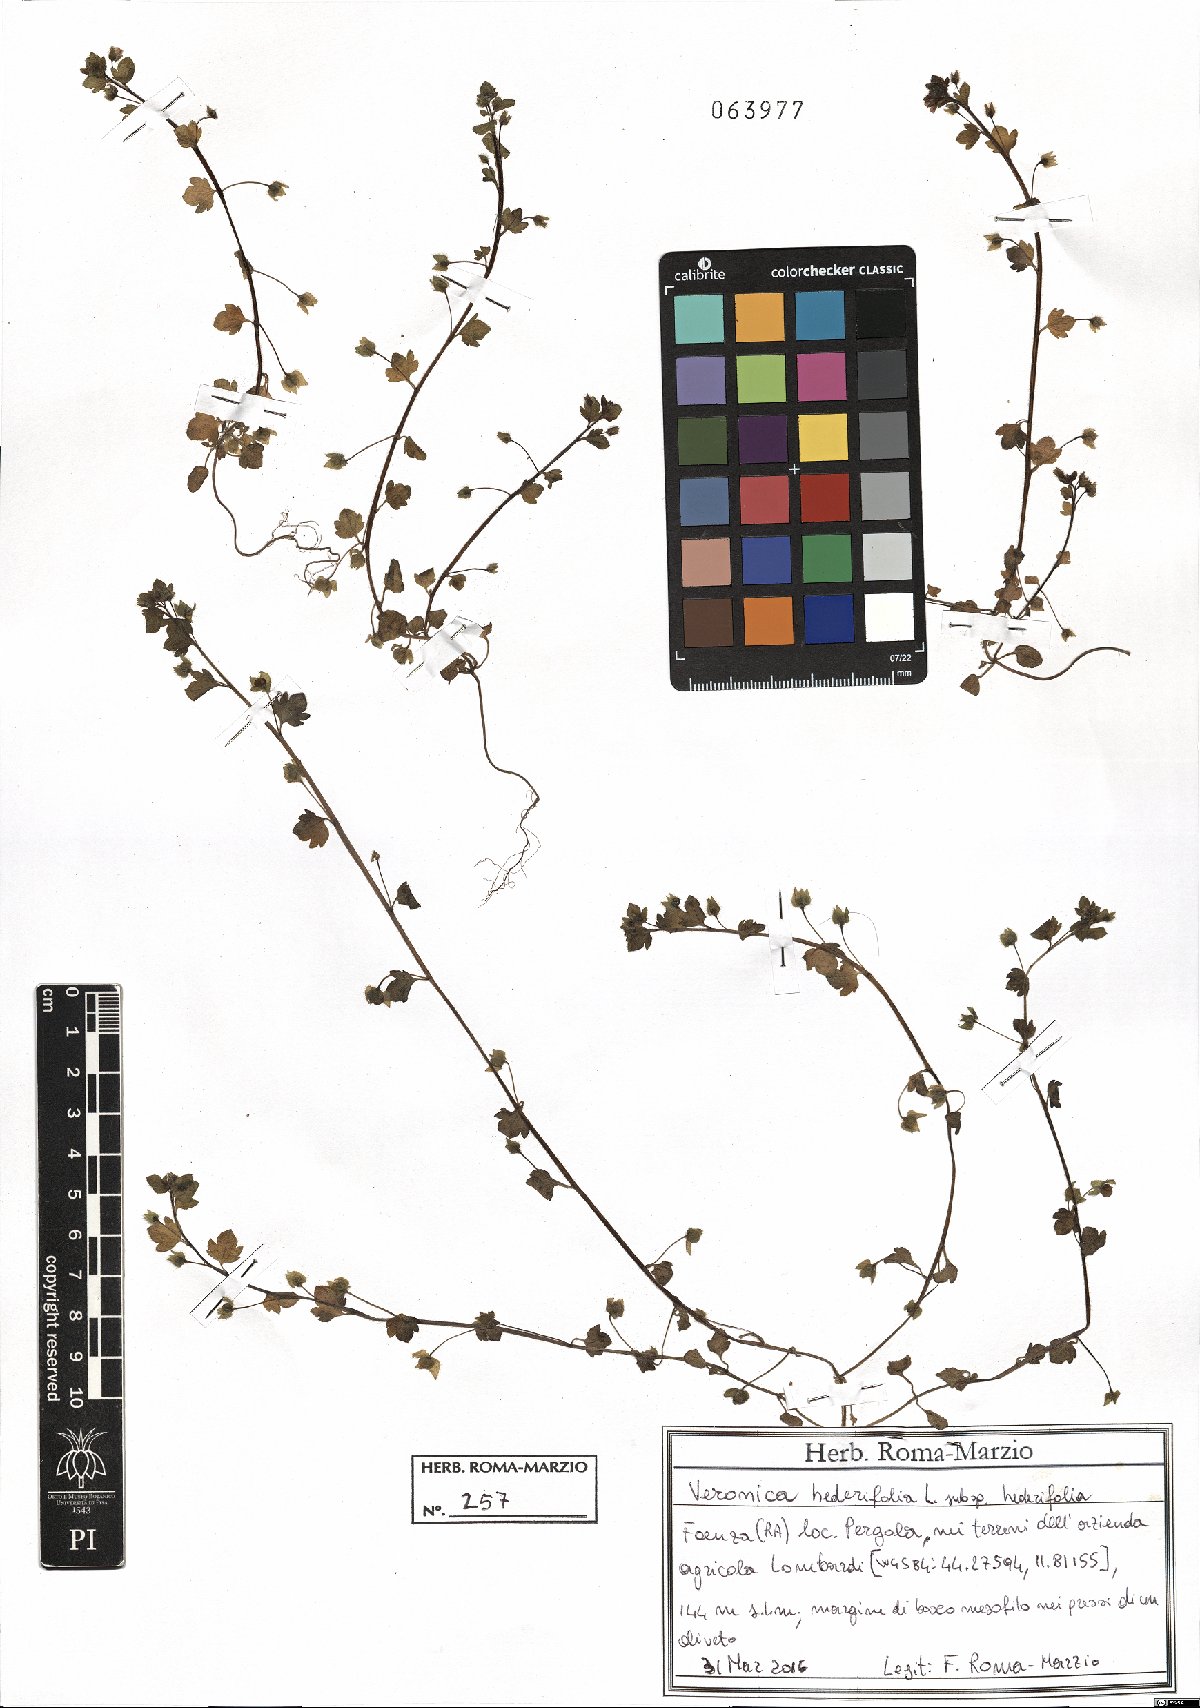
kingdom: Plantae
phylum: Tracheophyta
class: Magnoliopsida
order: Lamiales
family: Plantaginaceae
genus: Veronica
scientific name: Veronica hederifolia
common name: Ivy-leaved speedwell
